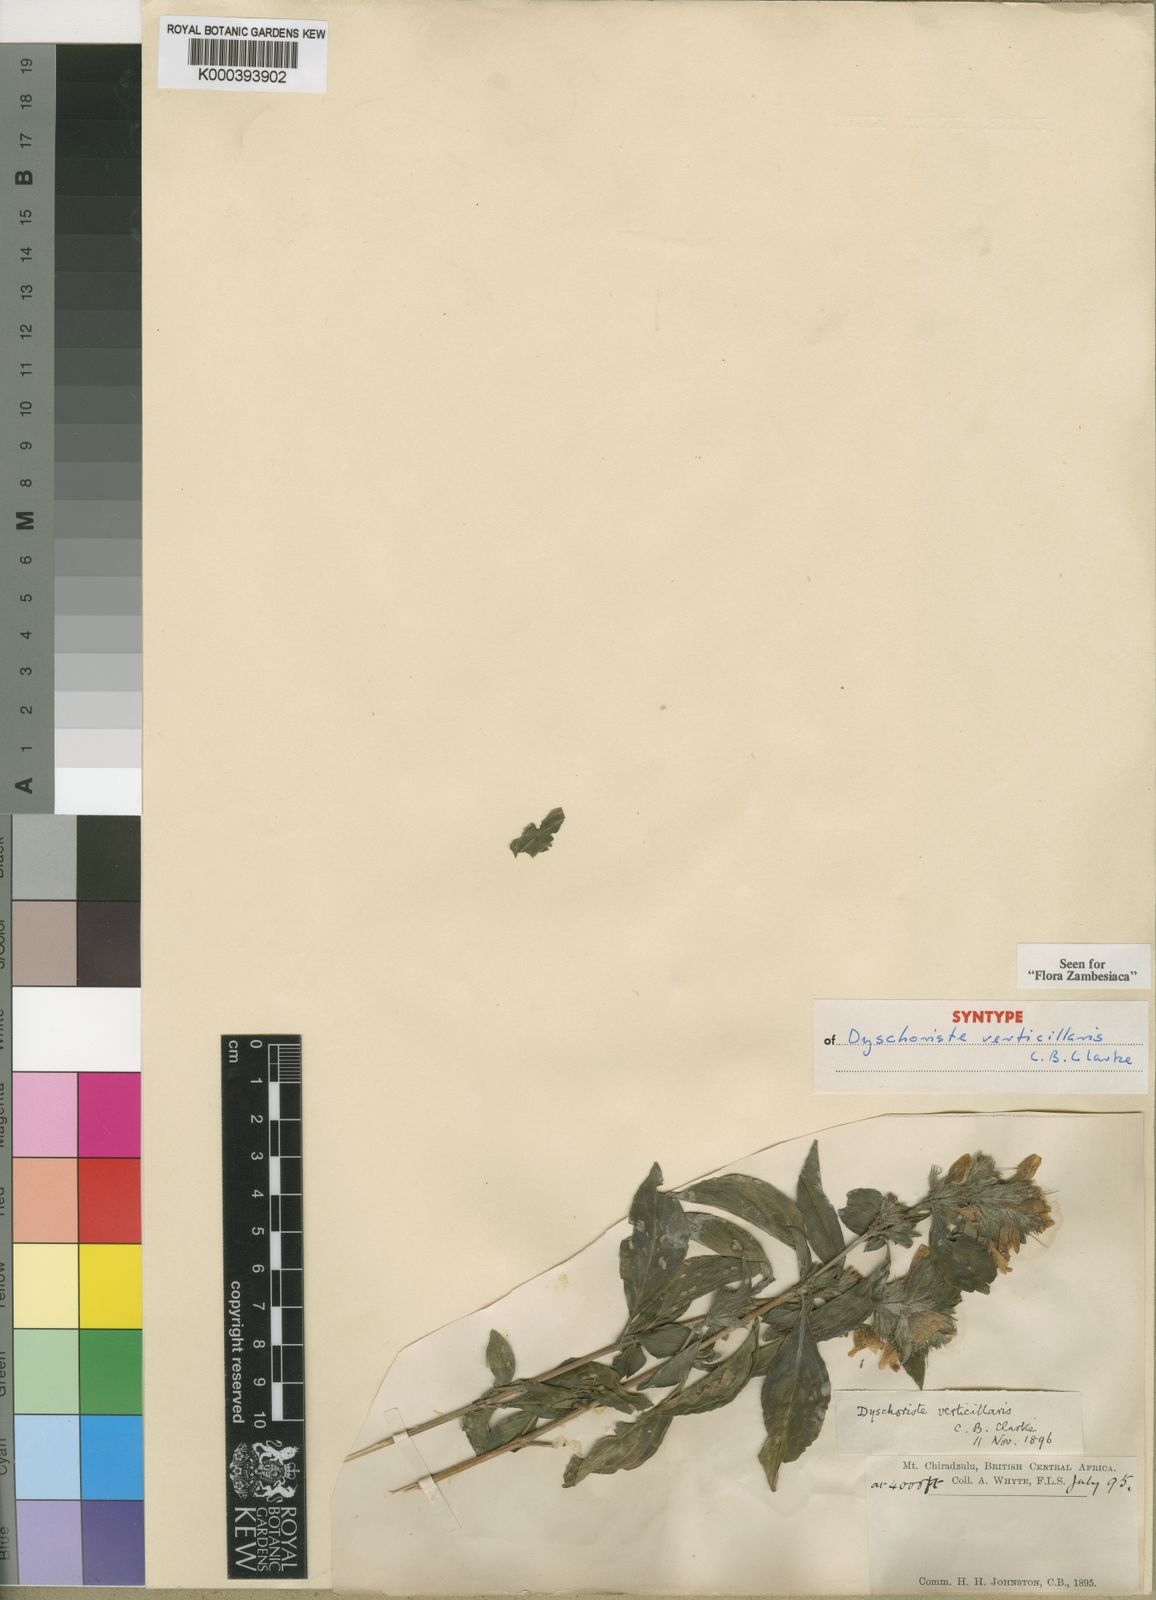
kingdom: Plantae
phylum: Tracheophyta
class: Magnoliopsida
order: Lamiales
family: Acanthaceae
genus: Dyschoriste
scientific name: Dyschoriste trichocalyx
